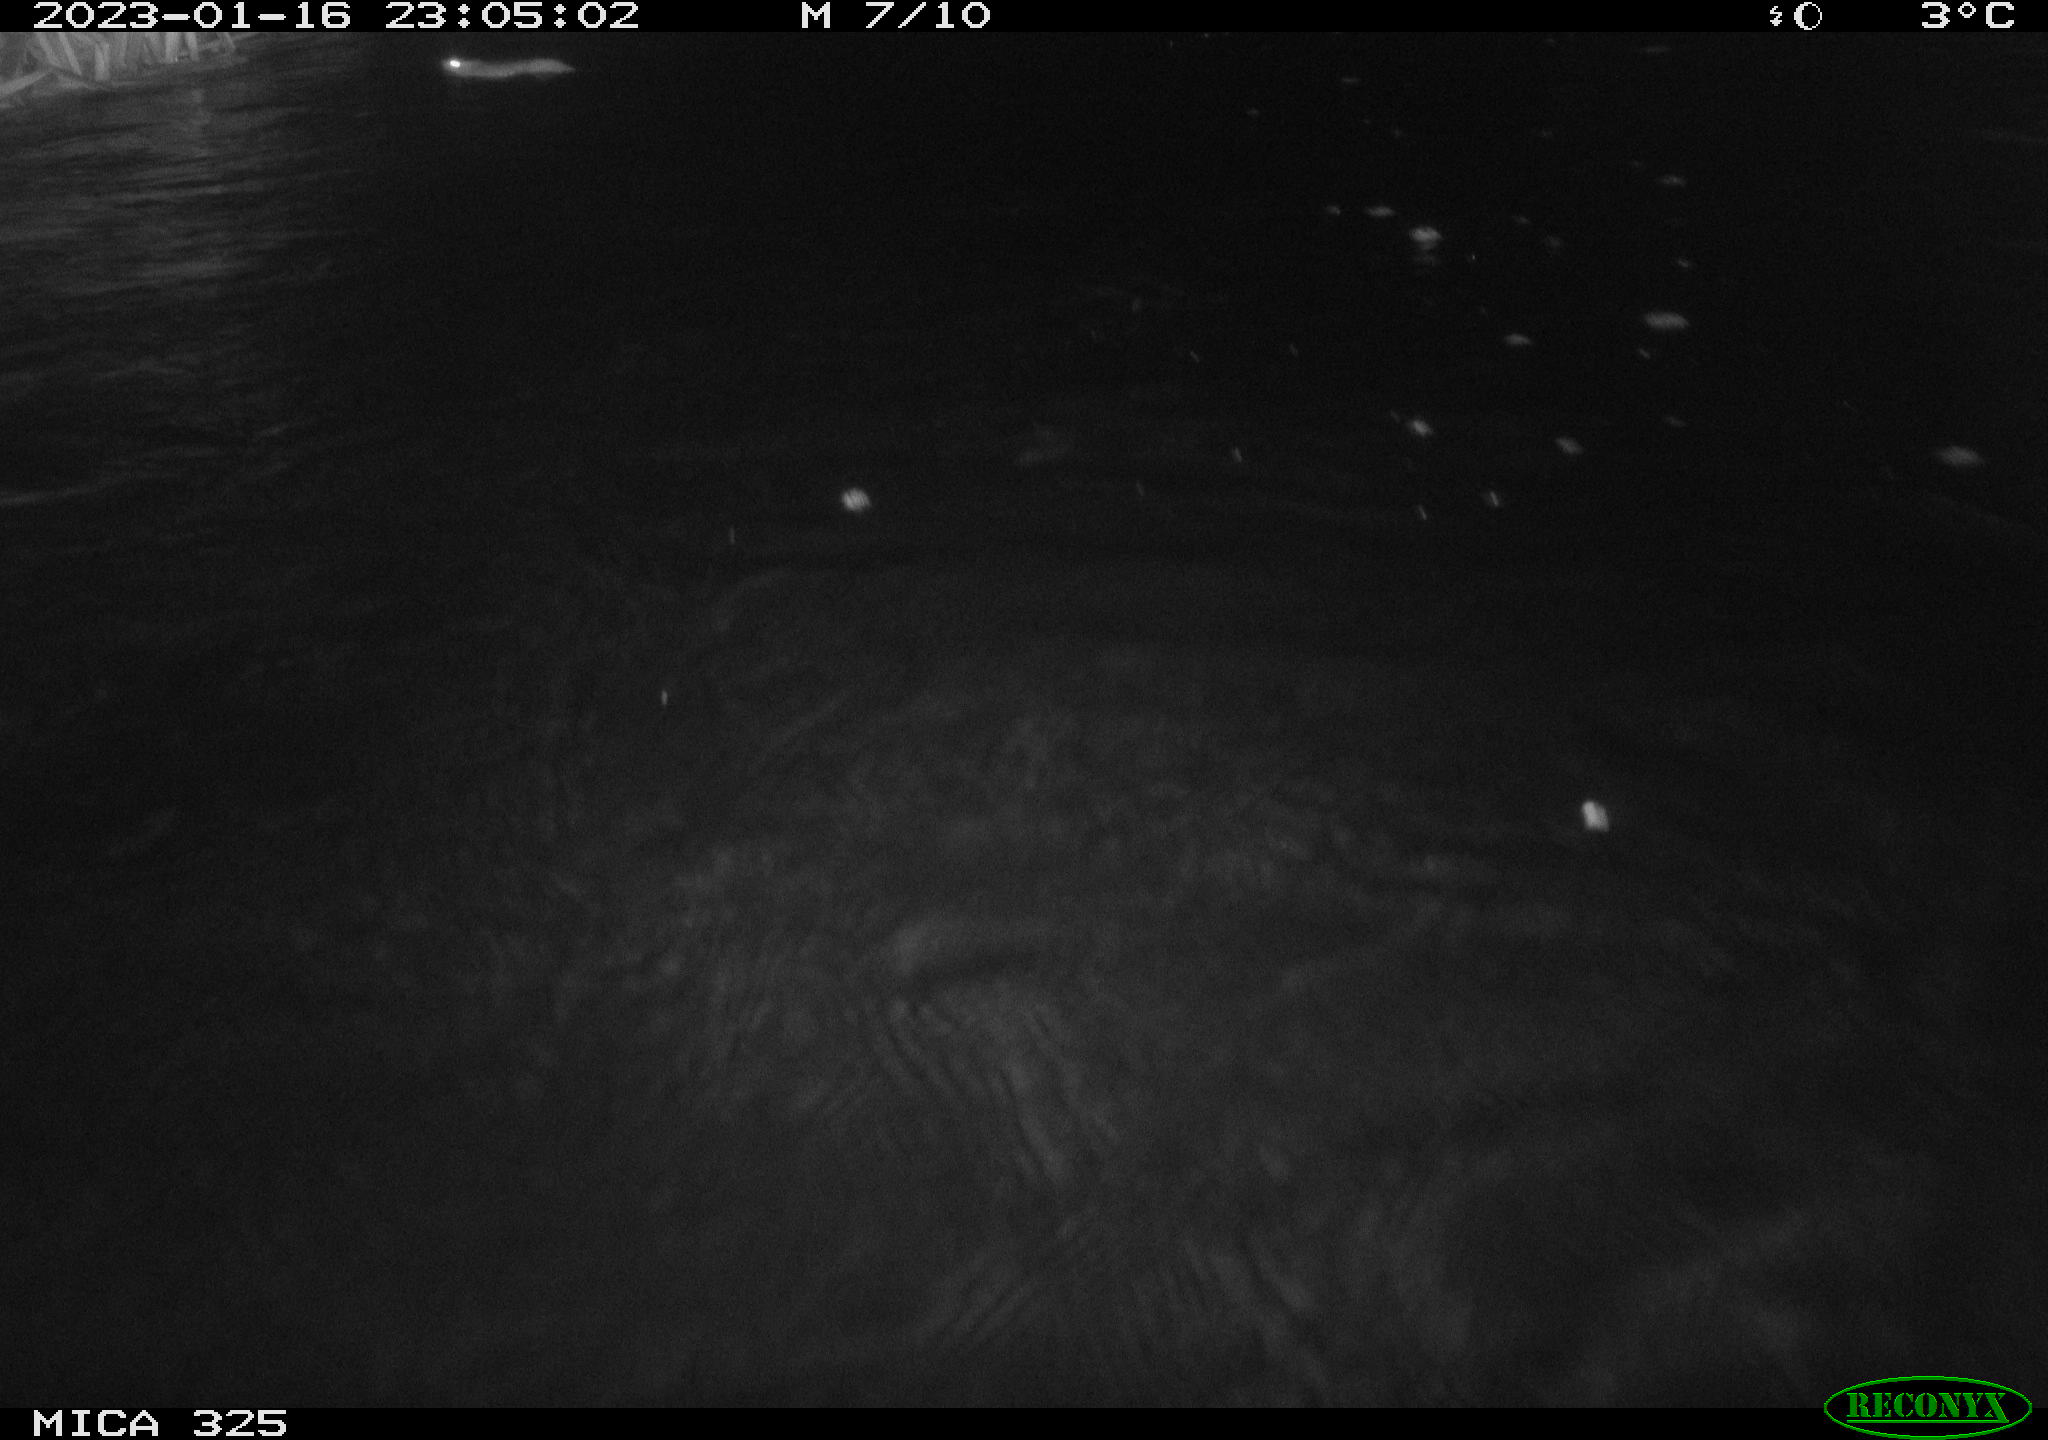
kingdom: Animalia
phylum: Chordata
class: Mammalia
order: Rodentia
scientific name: Rodentia
